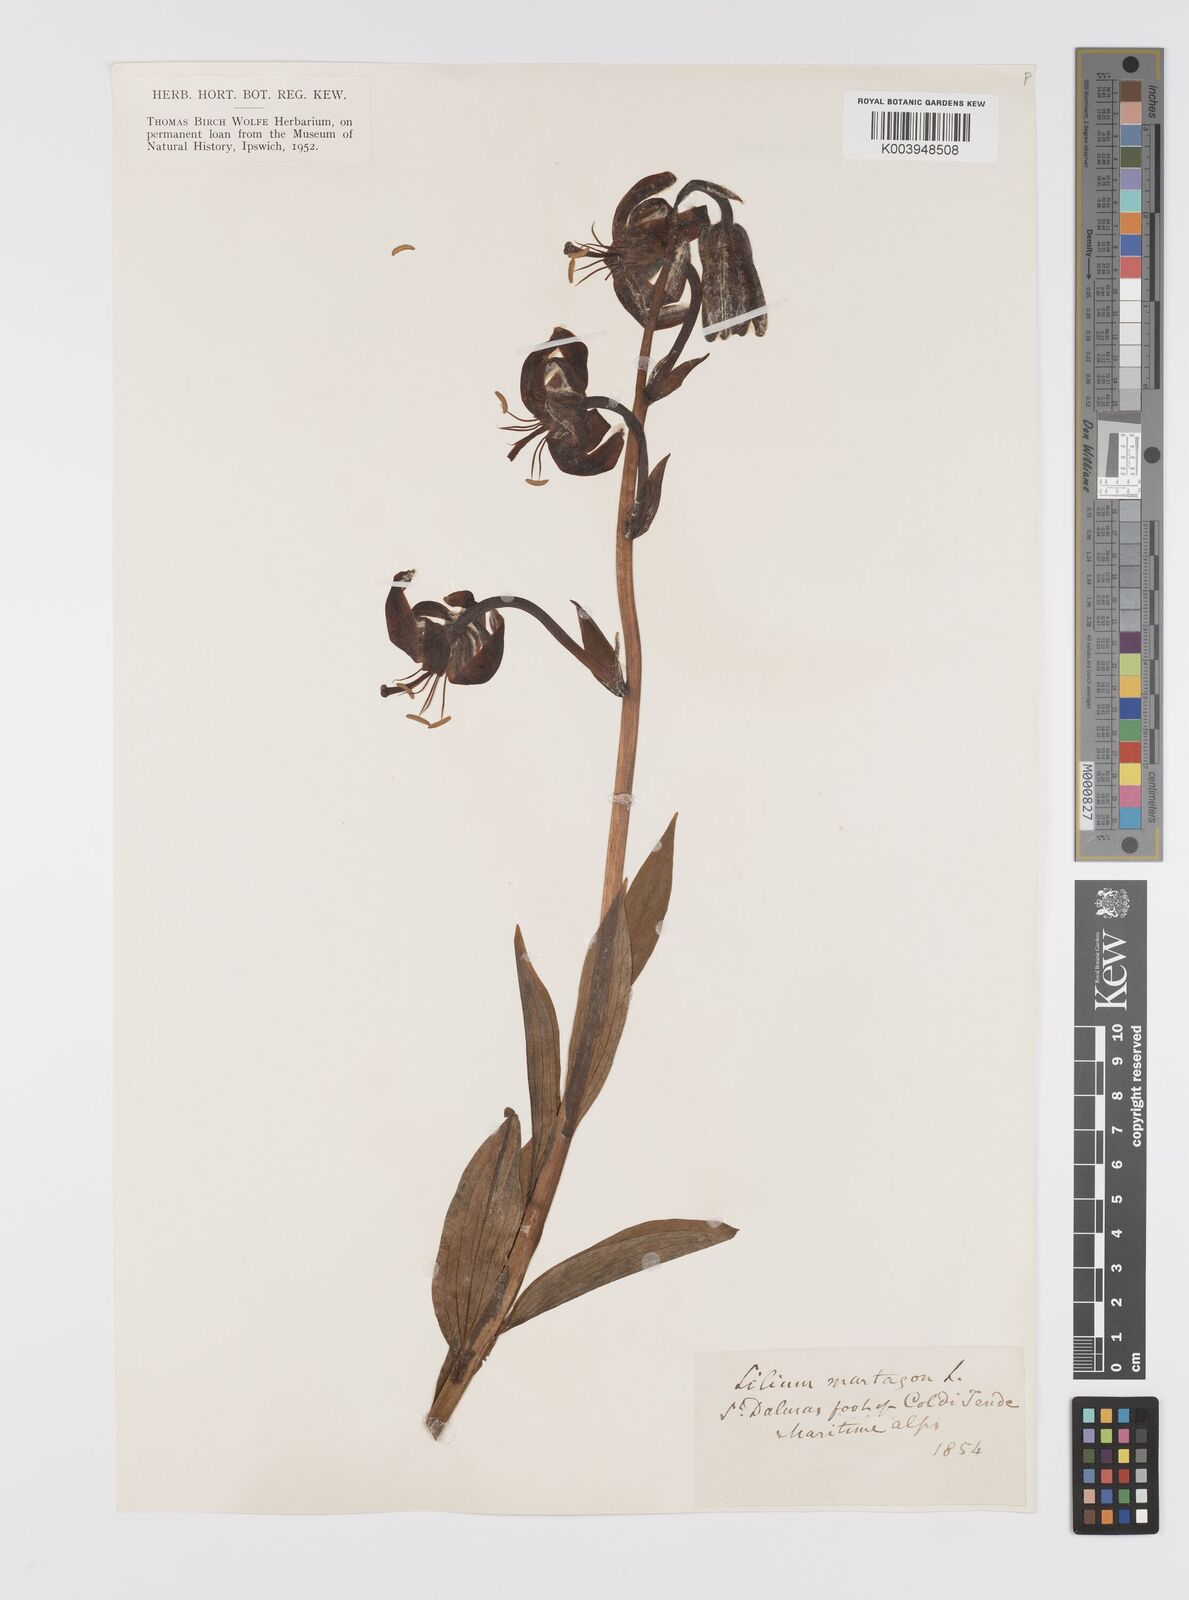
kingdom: Plantae
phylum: Tracheophyta
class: Liliopsida
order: Liliales
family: Liliaceae
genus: Lilium
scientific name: Lilium martagon
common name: Martagon lily
